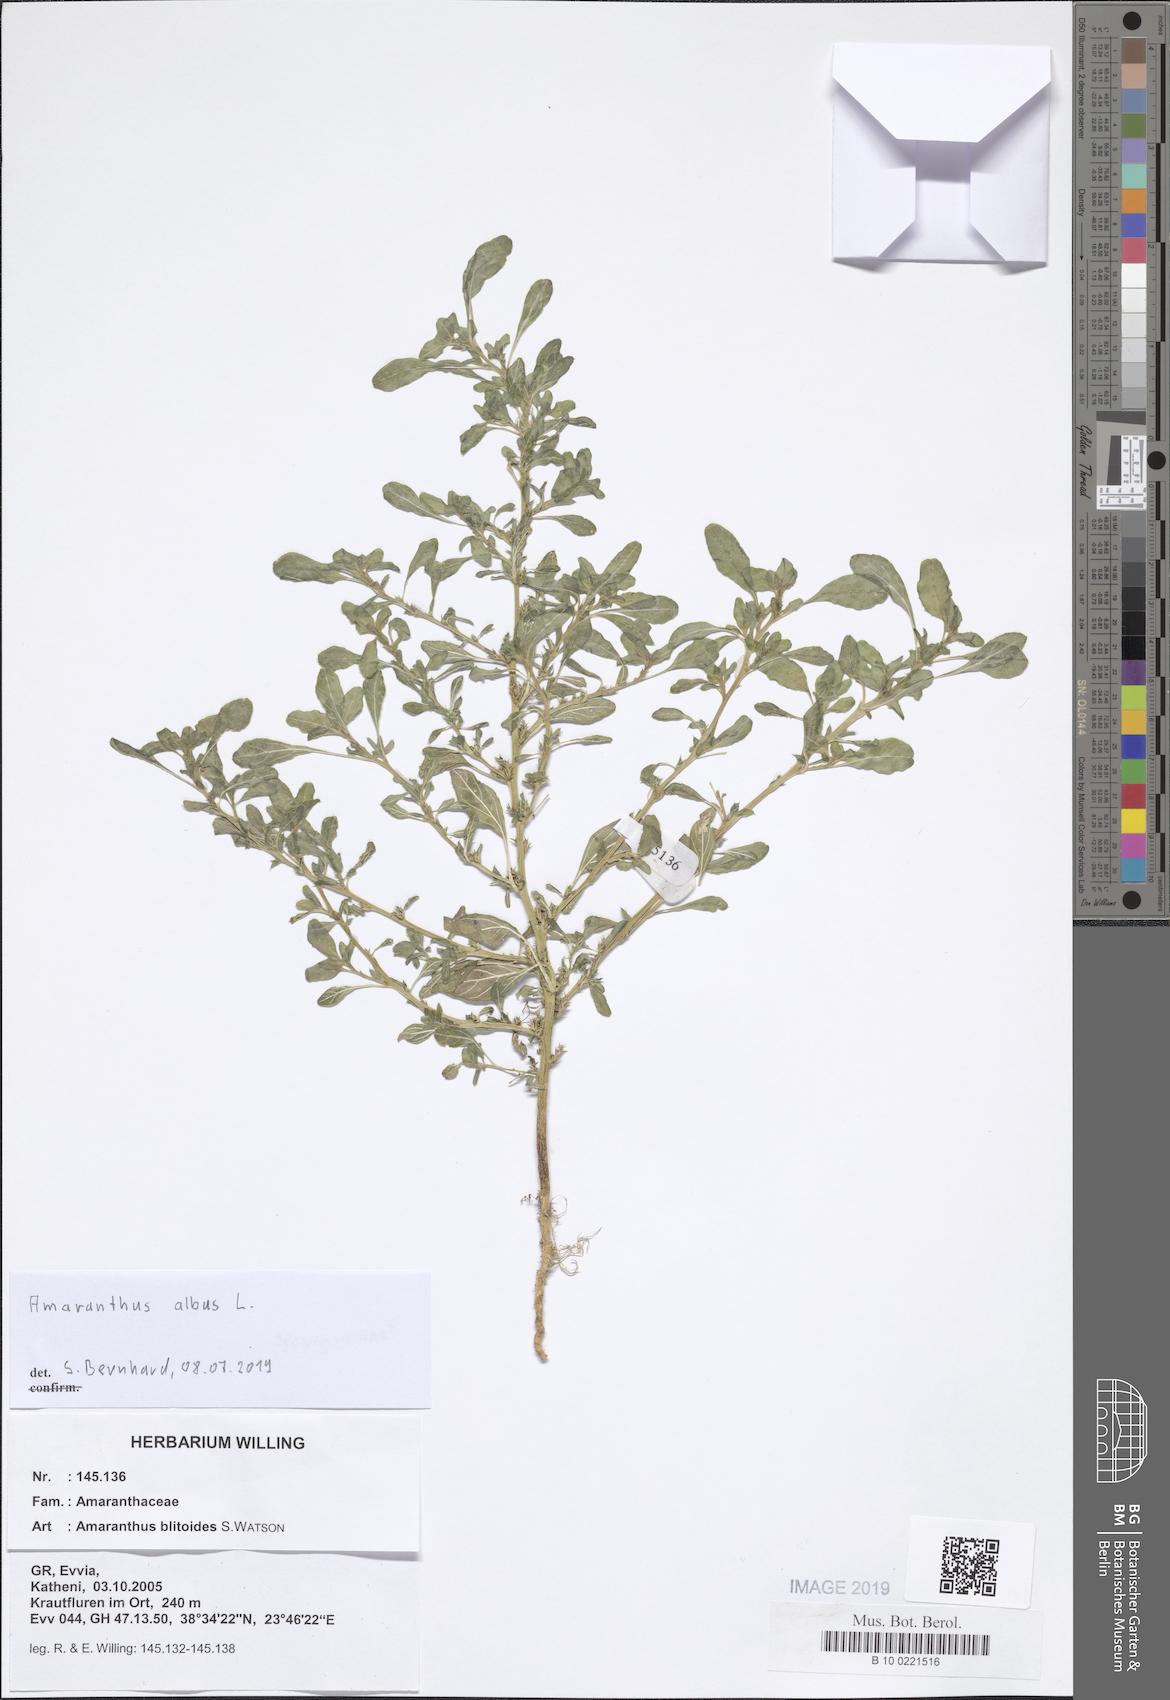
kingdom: Plantae
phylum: Tracheophyta
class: Magnoliopsida
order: Caryophyllales
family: Amaranthaceae
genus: Amaranthus
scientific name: Amaranthus blitoides
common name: Prostrate pigweed
